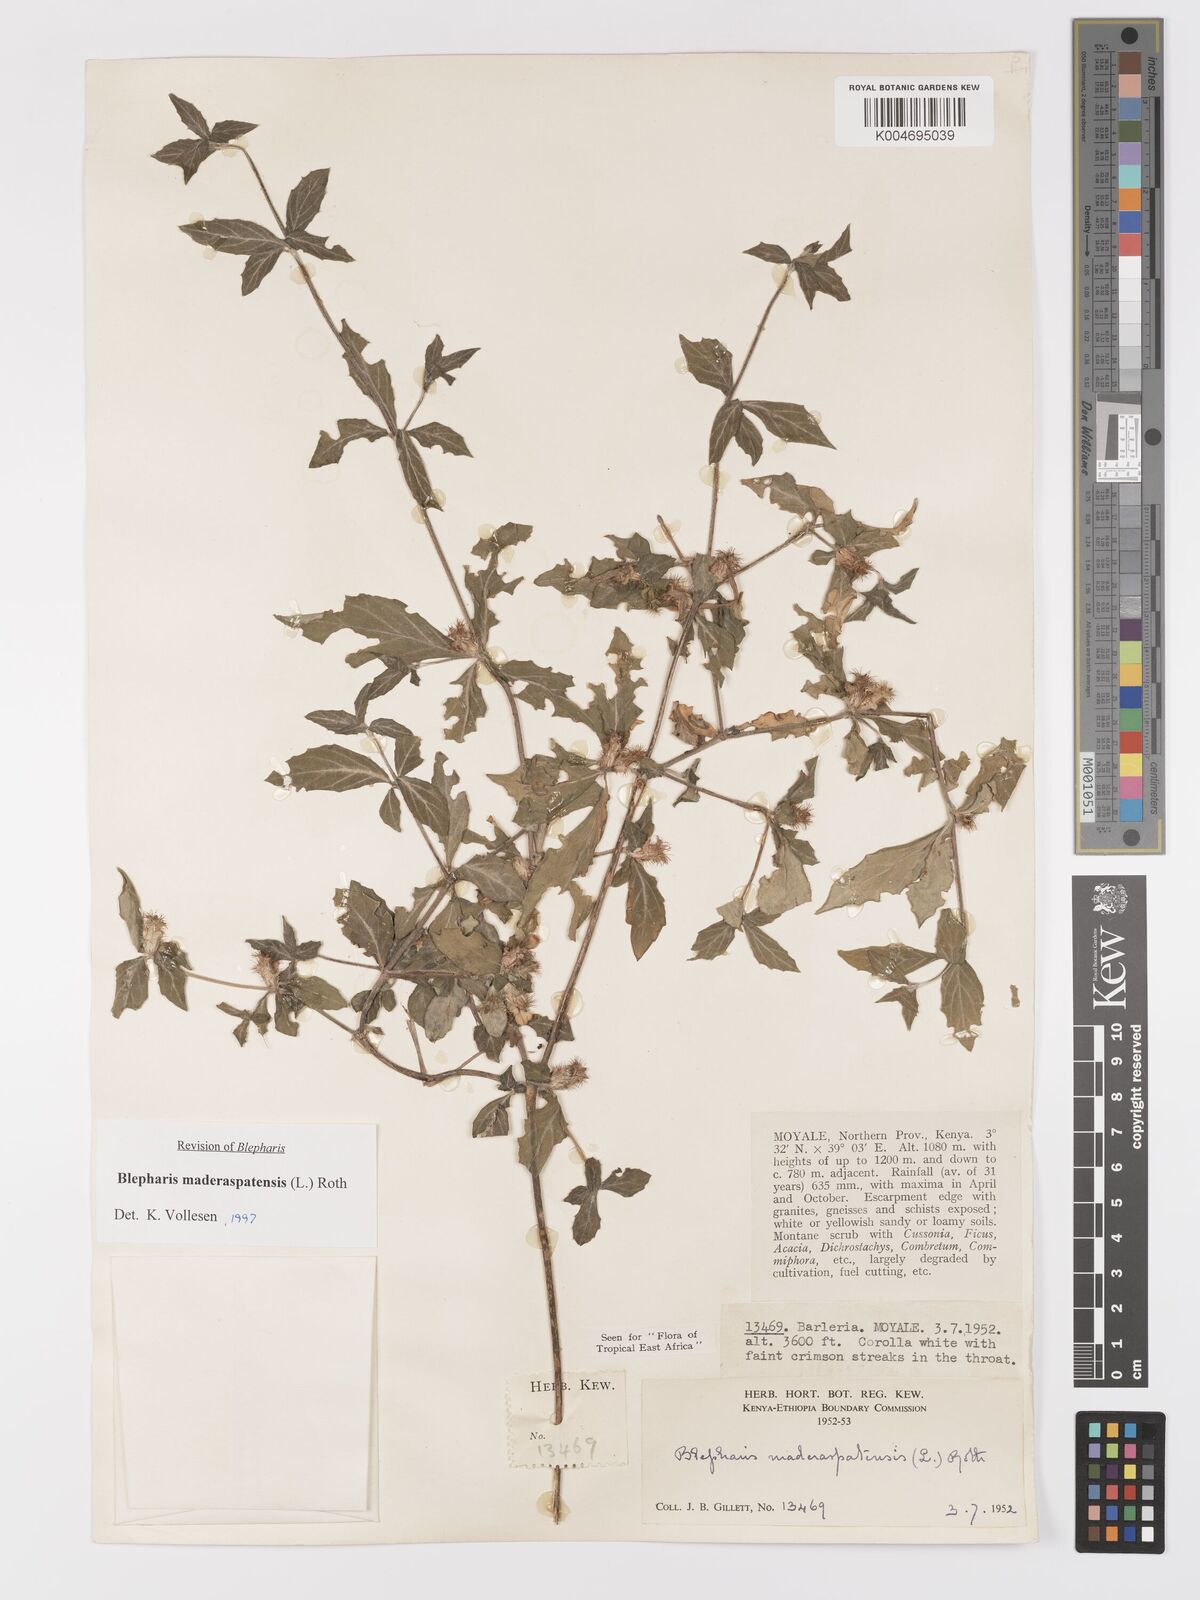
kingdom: Plantae
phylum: Tracheophyta
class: Magnoliopsida
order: Lamiales
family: Acanthaceae
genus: Blepharis
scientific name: Blepharis maderaspatensis
